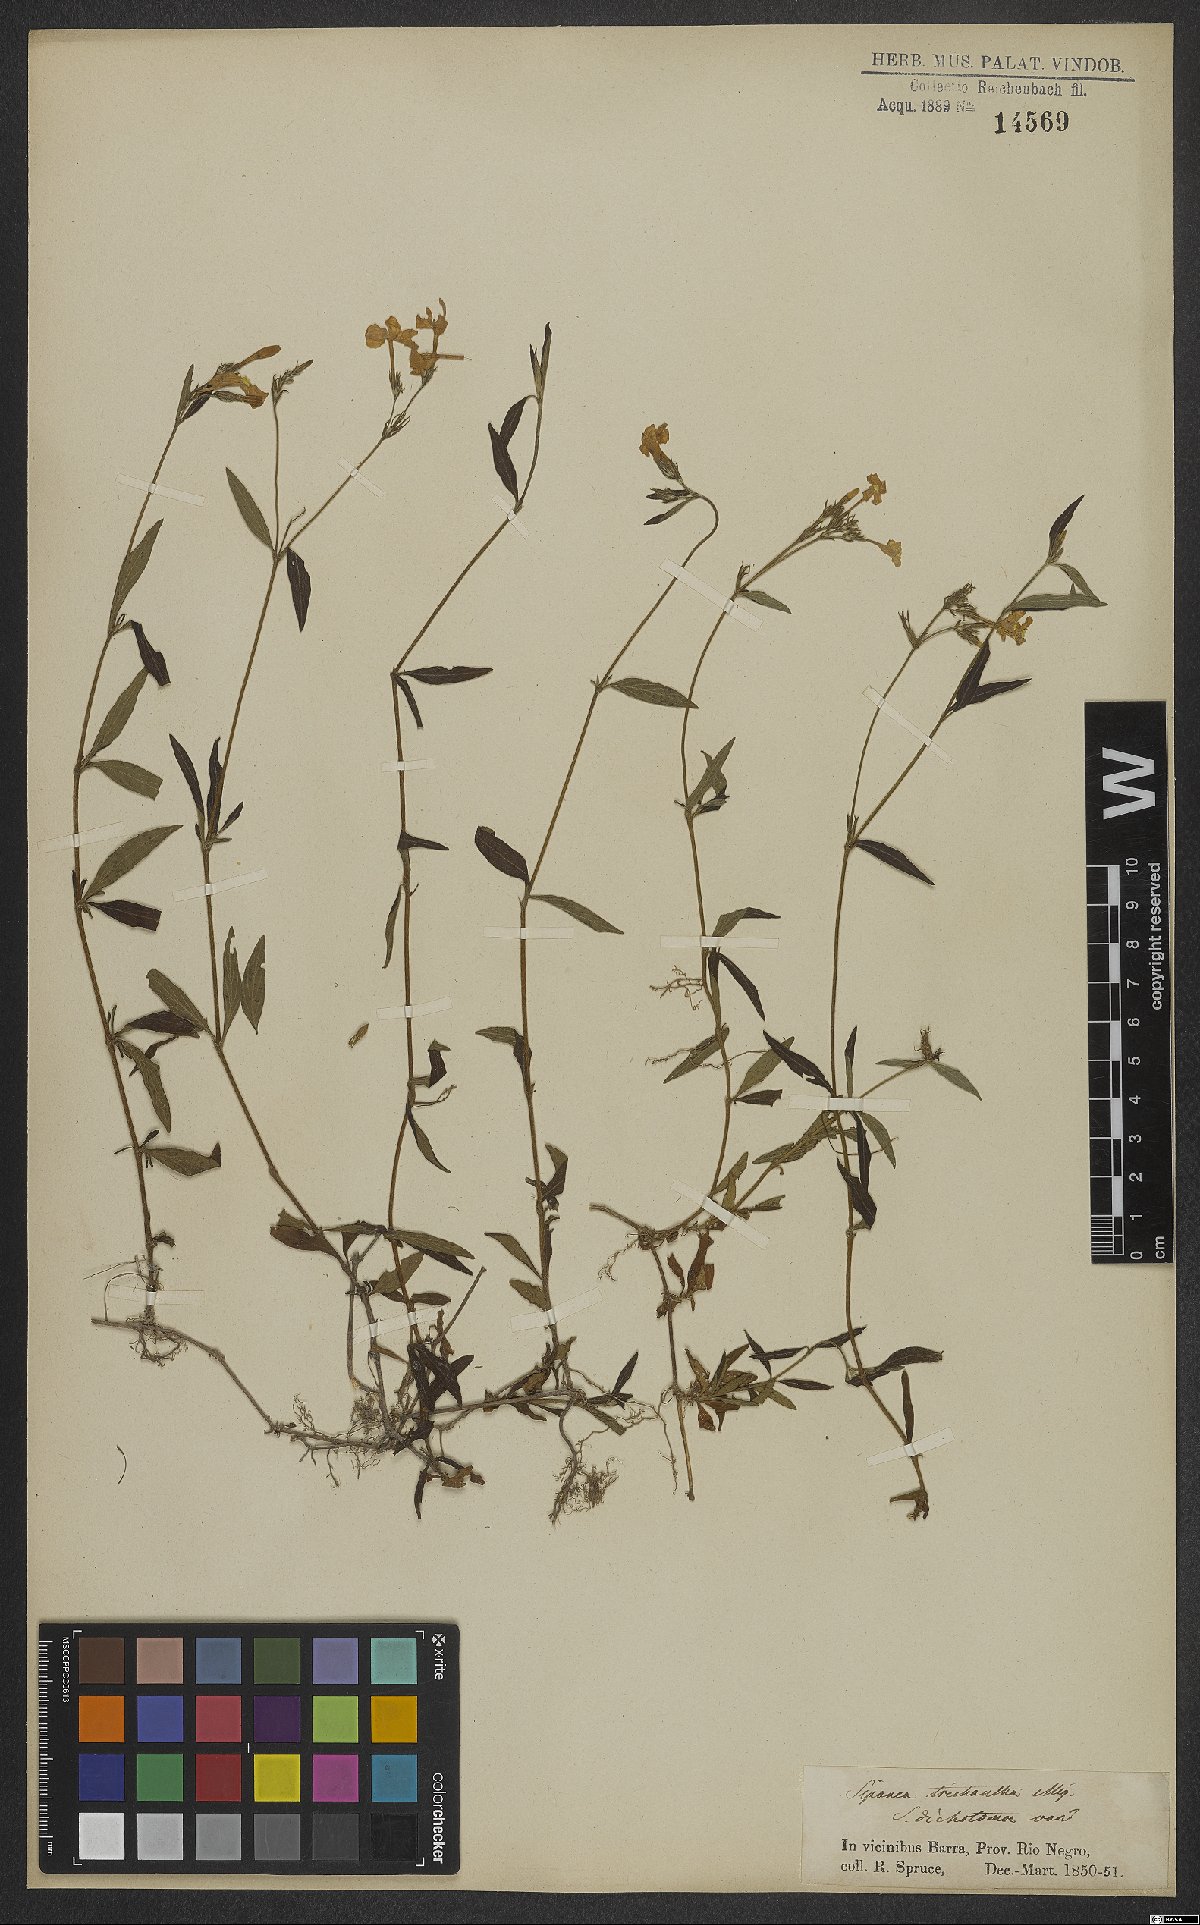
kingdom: Plantae
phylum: Tracheophyta
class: Magnoliopsida
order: Gentianales
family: Rubiaceae
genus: Sipanea
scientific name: Sipanea pratensis
